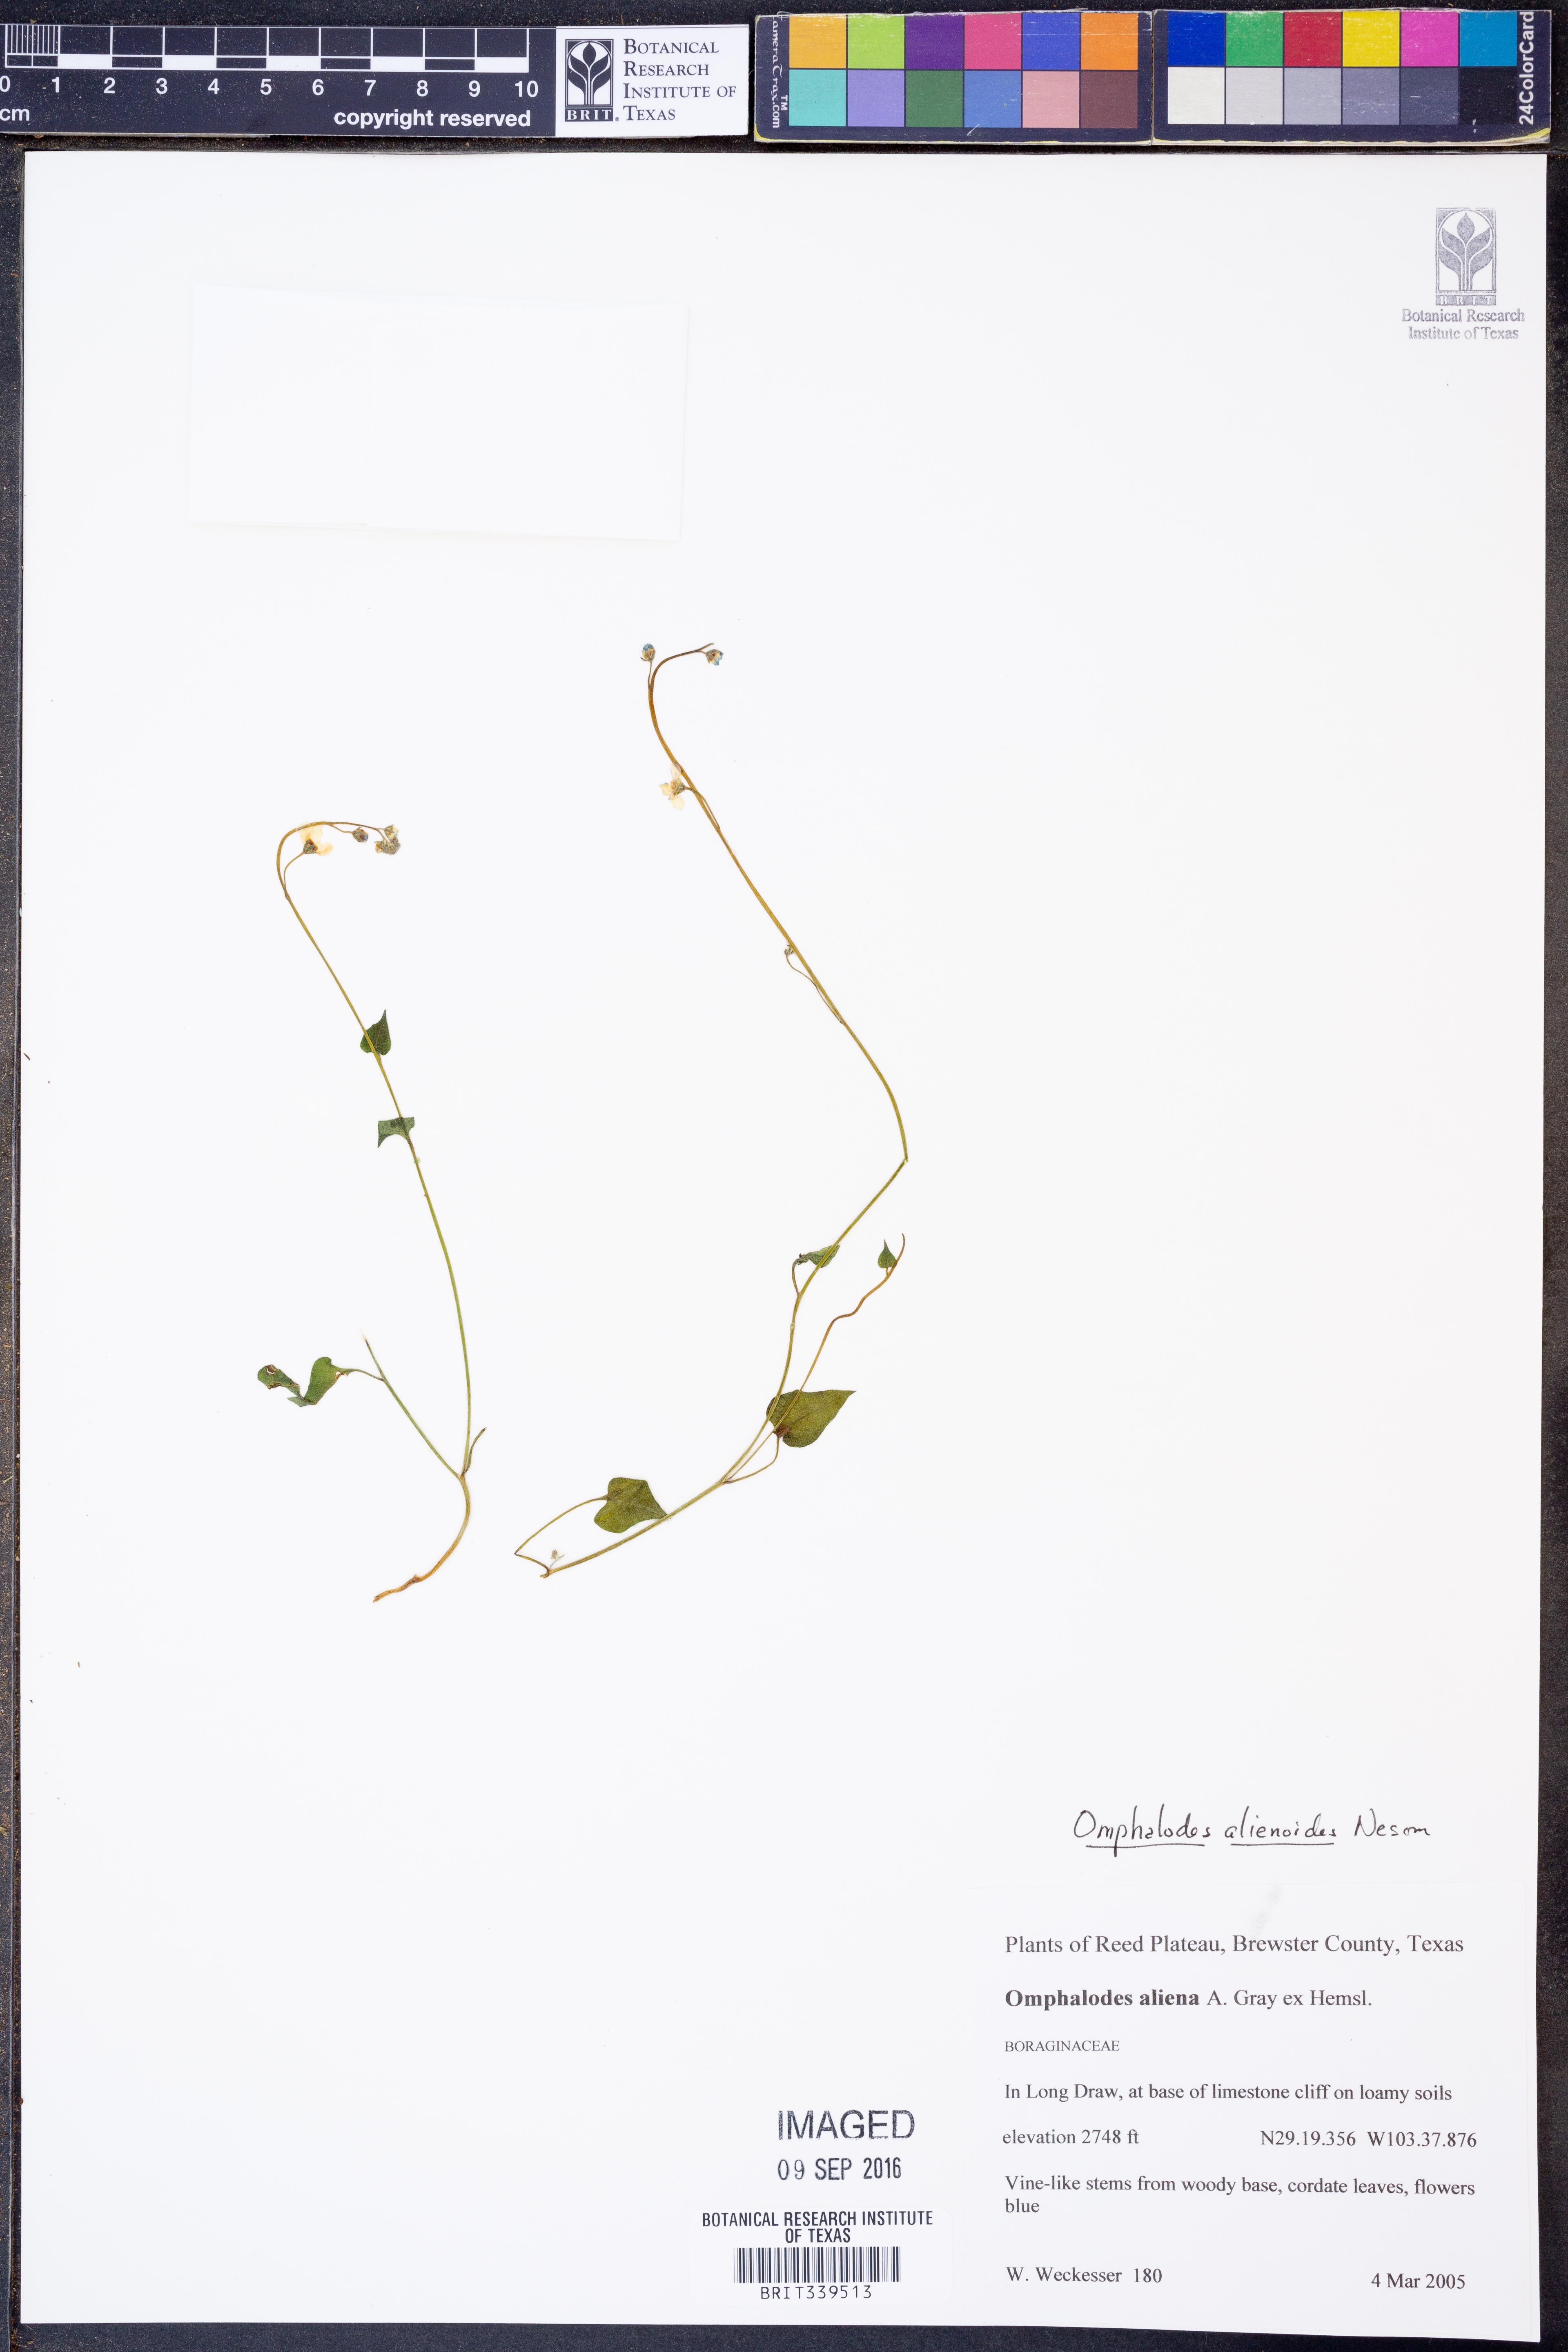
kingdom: Plantae
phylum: Tracheophyta
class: Magnoliopsida
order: Boraginales
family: Boraginaceae
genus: Mimophytum
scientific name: Mimophytum alienoides
